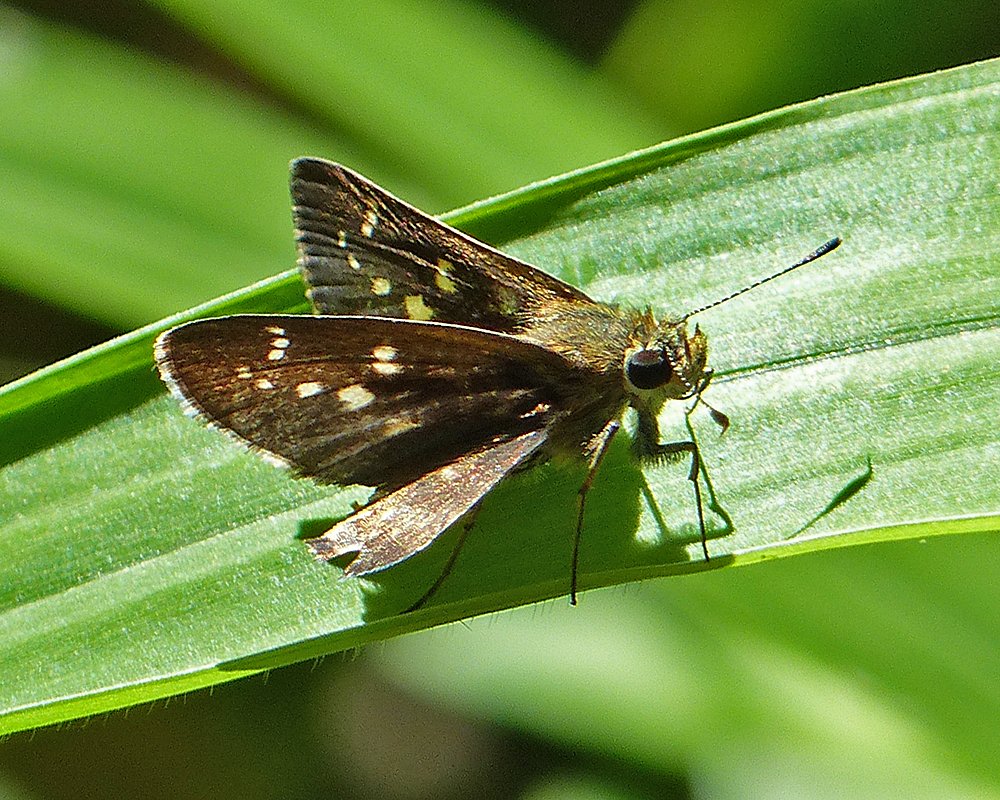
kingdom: Animalia
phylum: Arthropoda
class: Insecta
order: Lepidoptera
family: Hesperiidae
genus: Mastor
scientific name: Mastor tolteca
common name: Toltec Roadside-Skipper
